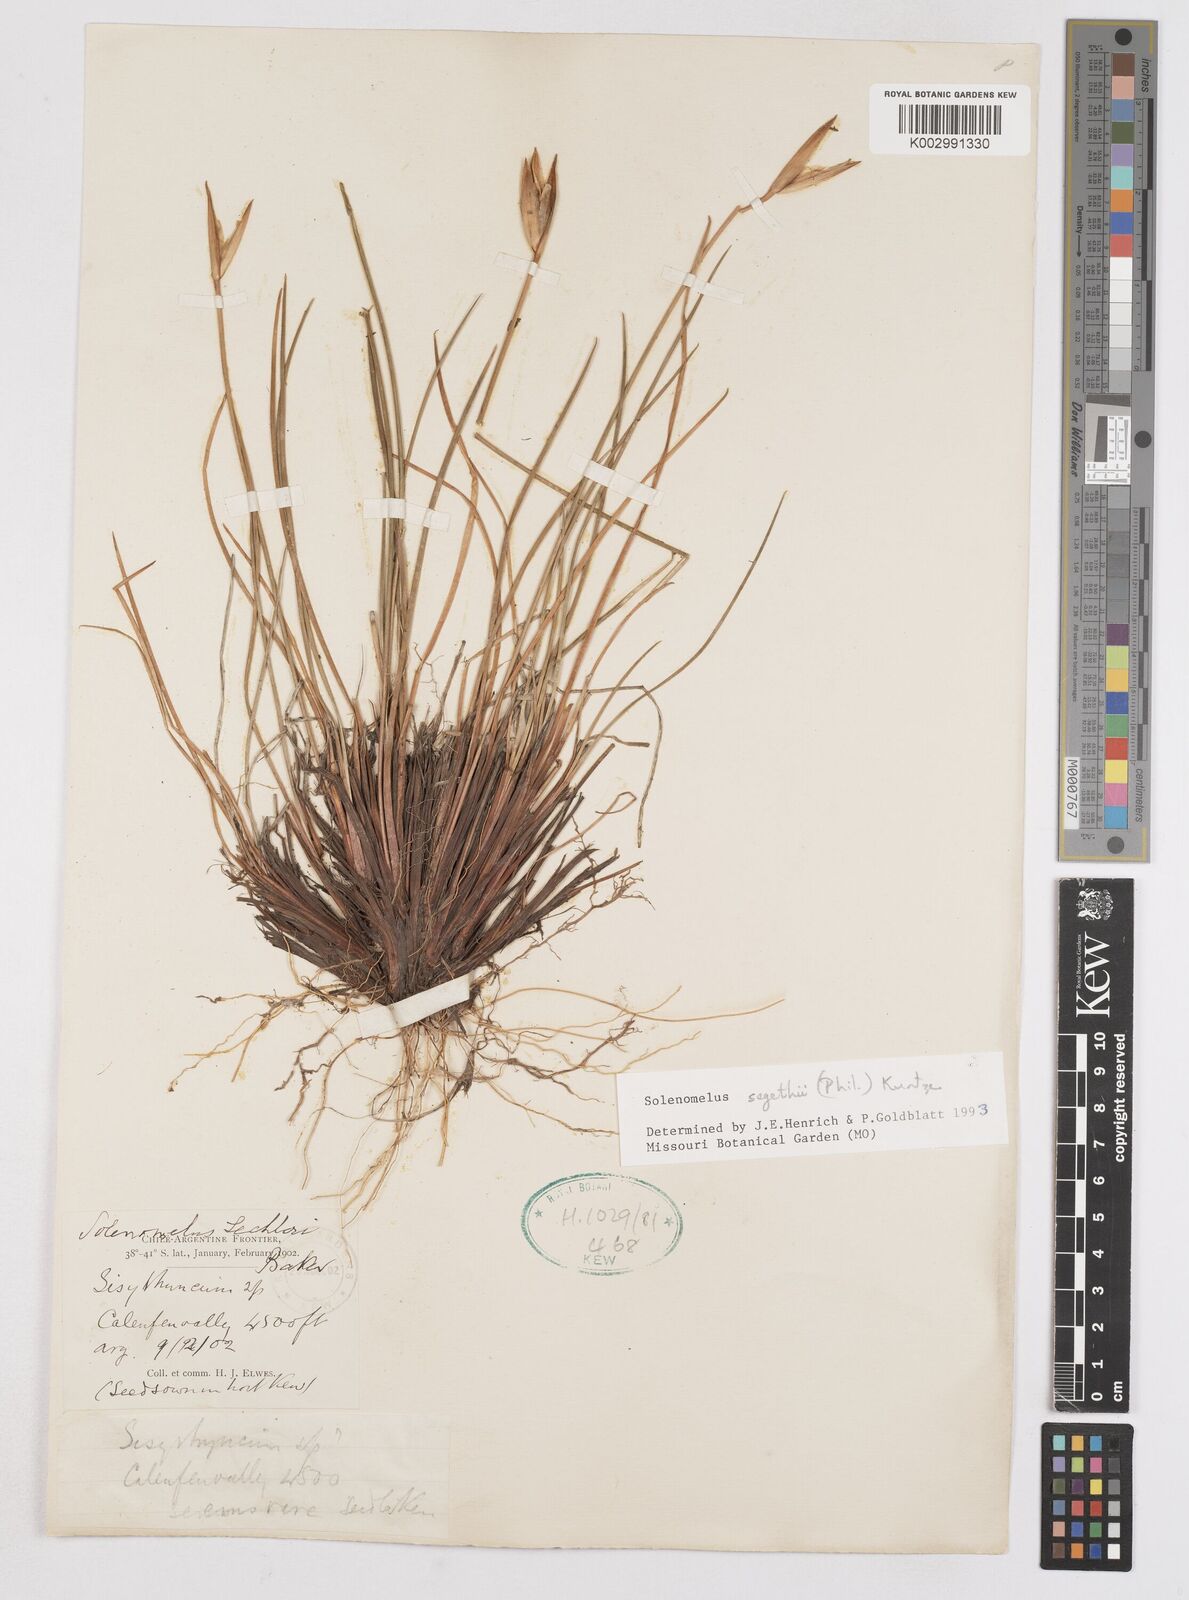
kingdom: Plantae
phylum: Tracheophyta
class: Liliopsida
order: Asparagales
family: Iridaceae
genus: Solenomelus
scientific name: Solenomelus segethi
